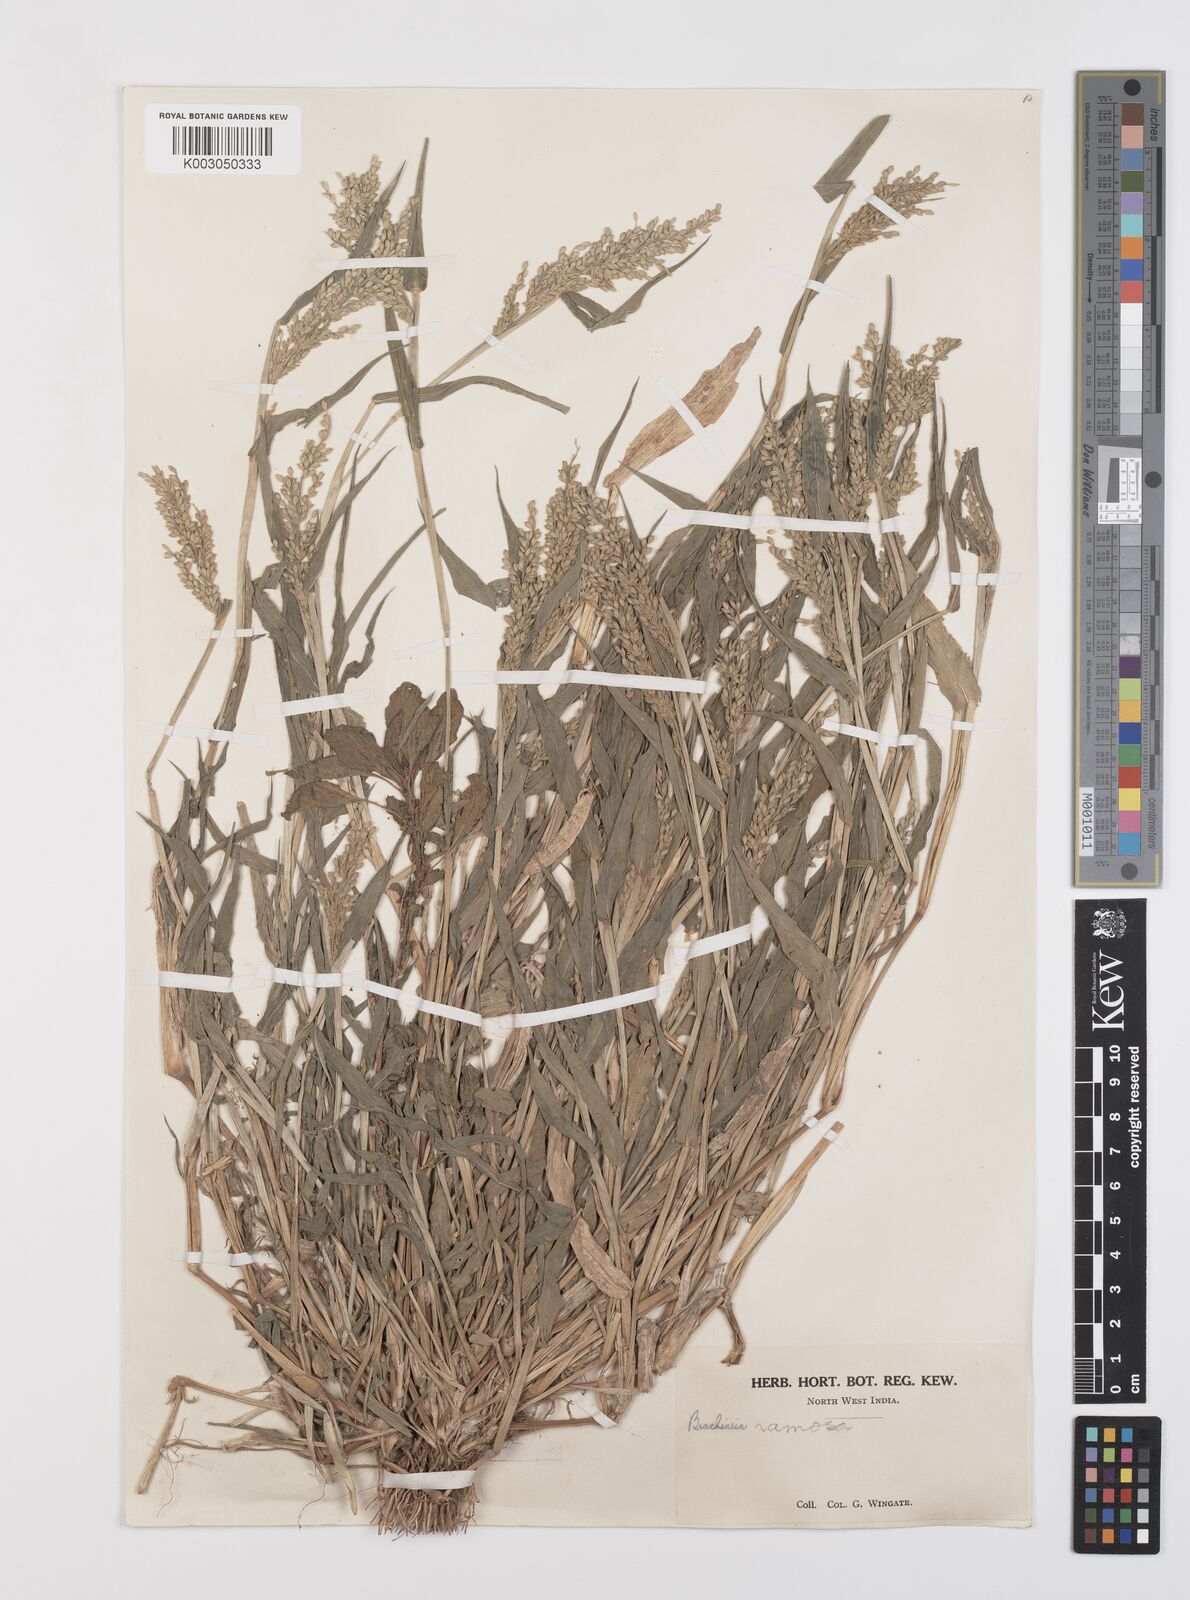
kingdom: Plantae
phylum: Tracheophyta
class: Liliopsida
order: Poales
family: Poaceae
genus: Urochloa
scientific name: Urochloa ramosa
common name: Browntop millet
